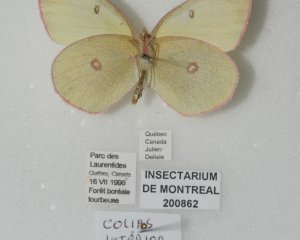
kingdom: Animalia
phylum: Arthropoda
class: Insecta
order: Lepidoptera
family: Pieridae
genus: Colias
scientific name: Colias interior
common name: Pink-edged Sulphur
